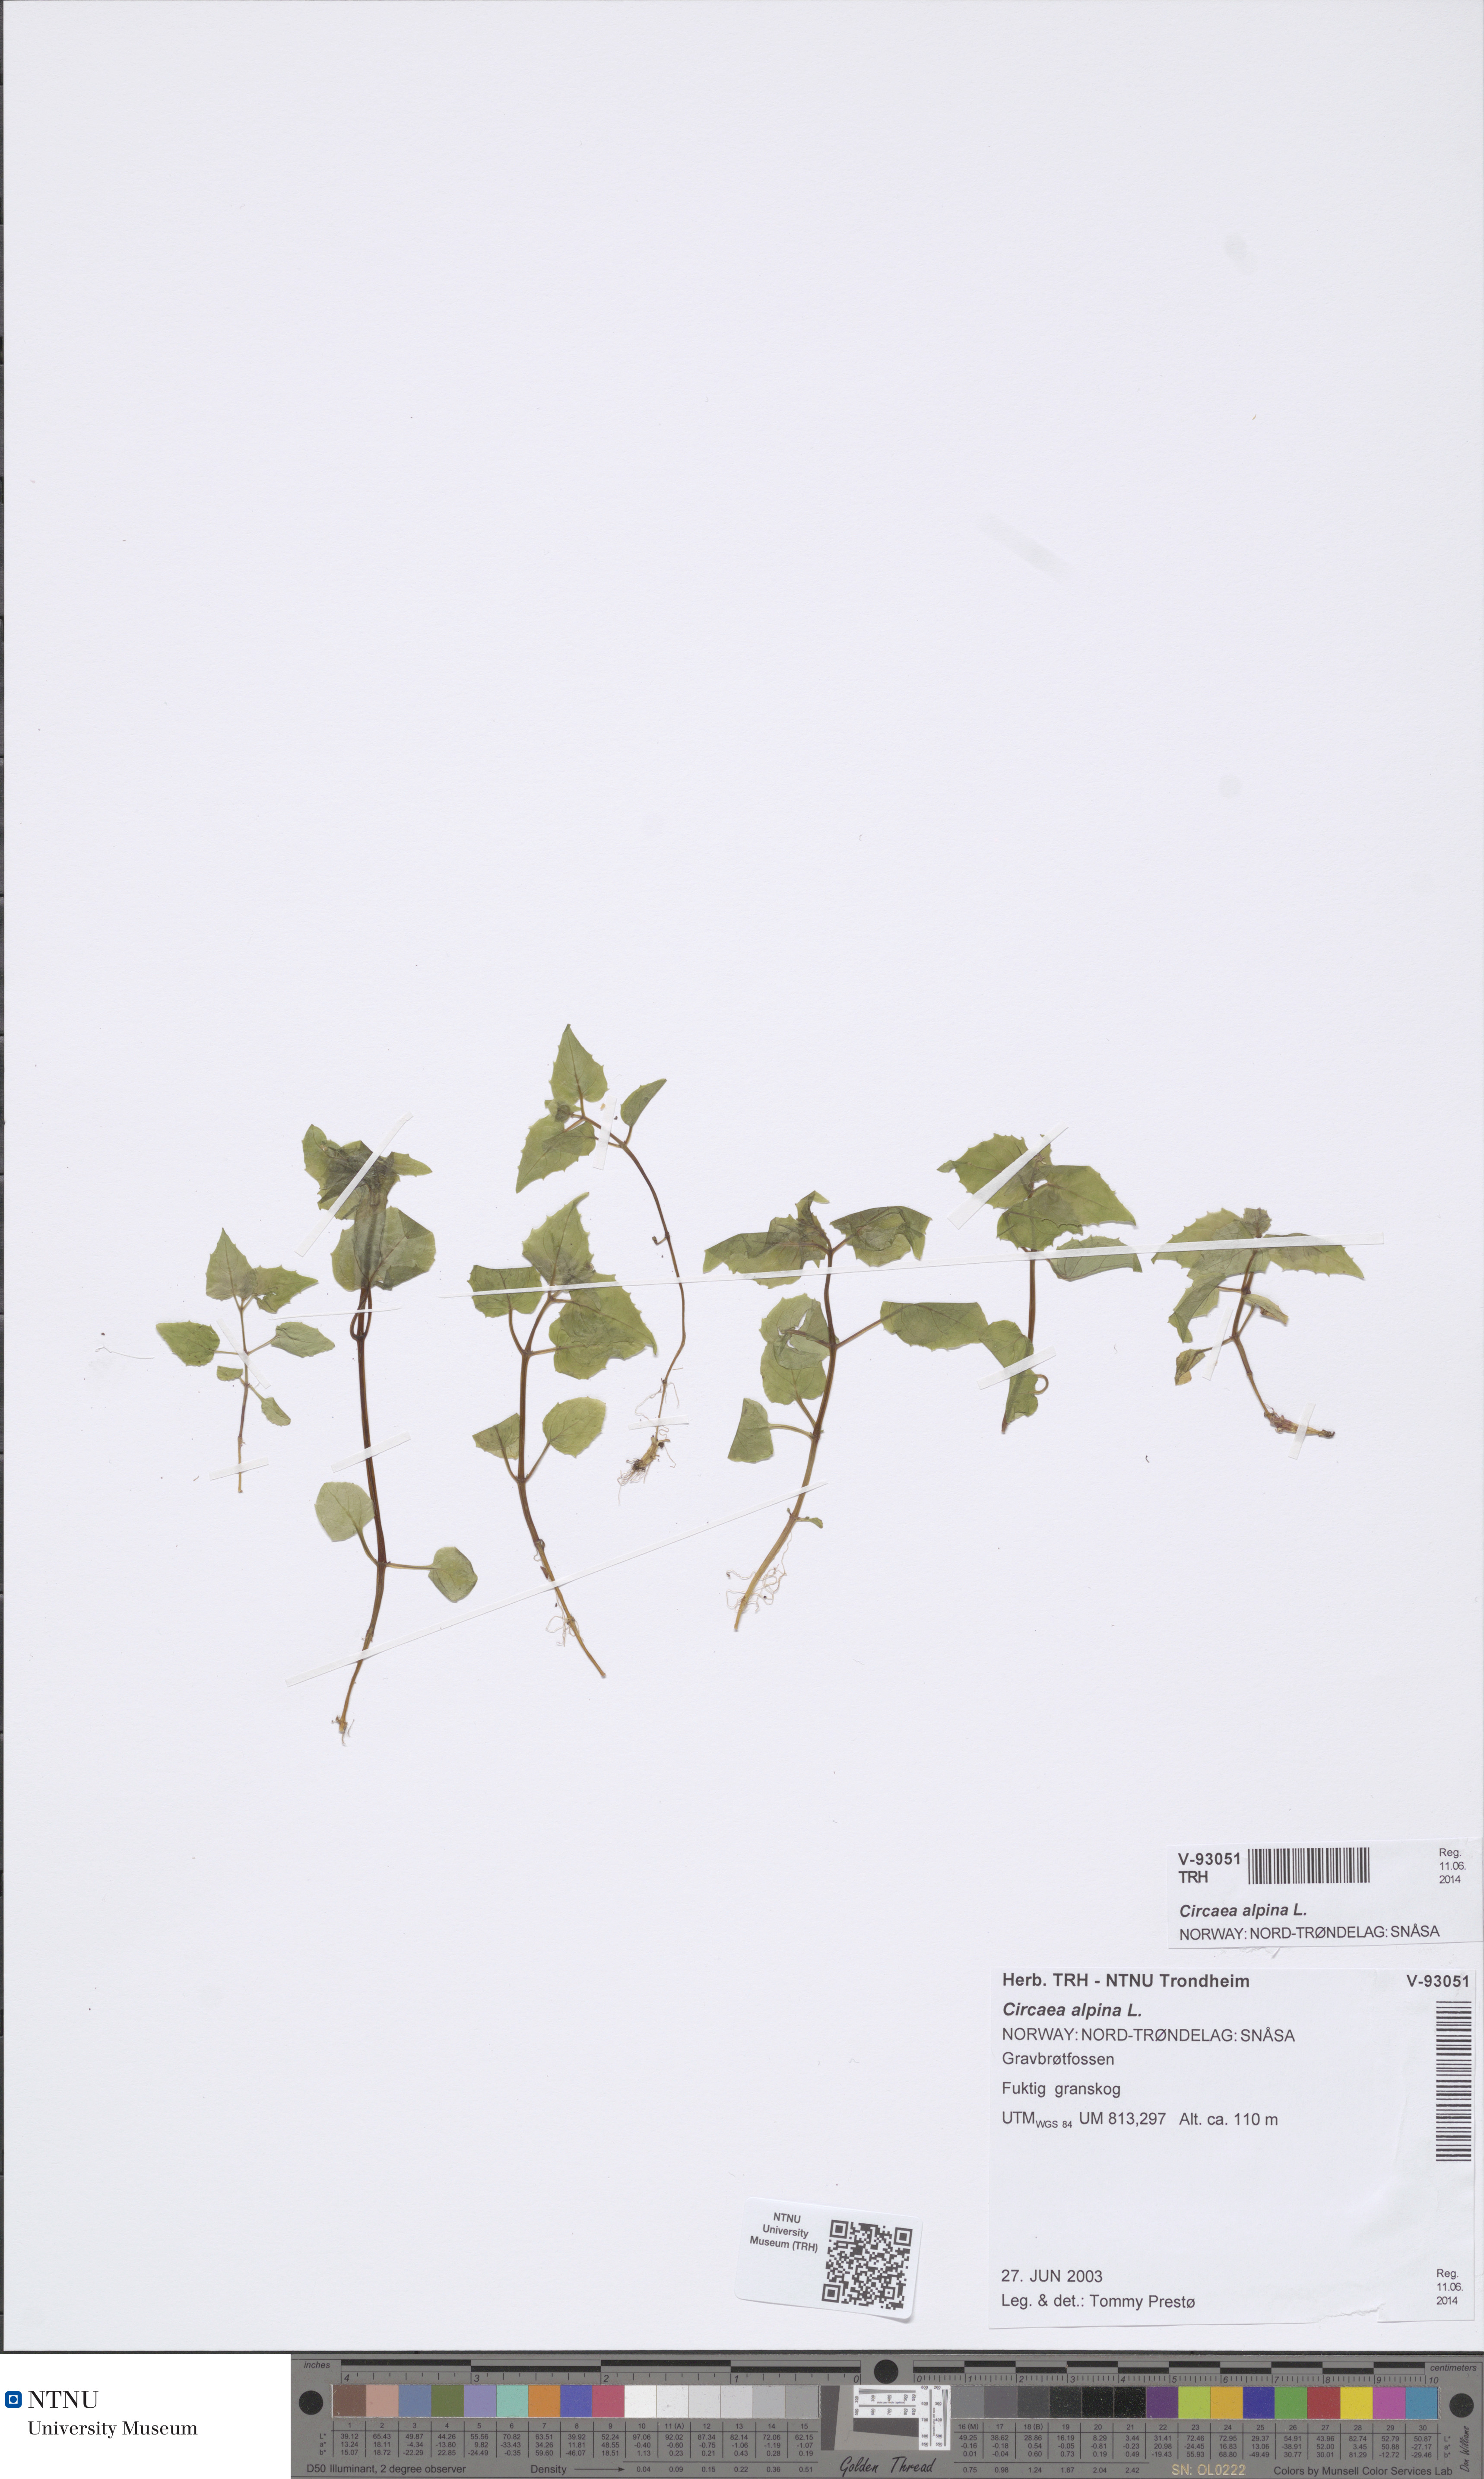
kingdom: Plantae
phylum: Tracheophyta
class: Magnoliopsida
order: Myrtales
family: Onagraceae
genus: Circaea
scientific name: Circaea alpina
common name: Alpine enchanter's-nightshade
